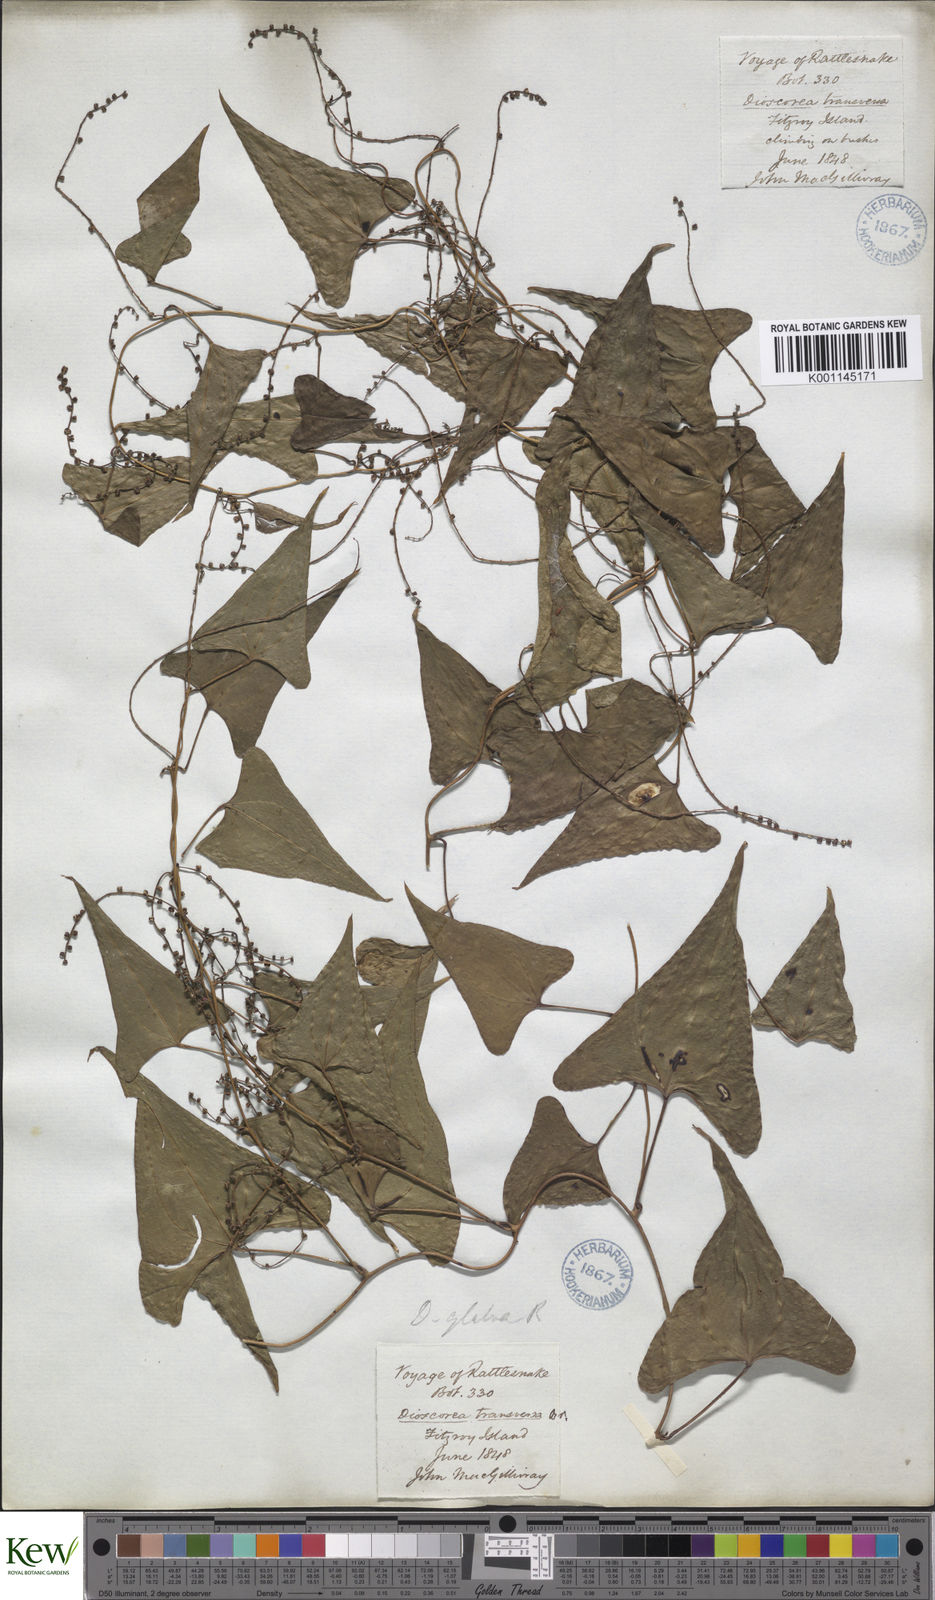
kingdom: Plantae
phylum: Tracheophyta
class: Liliopsida
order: Dioscoreales
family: Dioscoreaceae
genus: Dioscorea
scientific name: Dioscorea transversa
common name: Long yam
